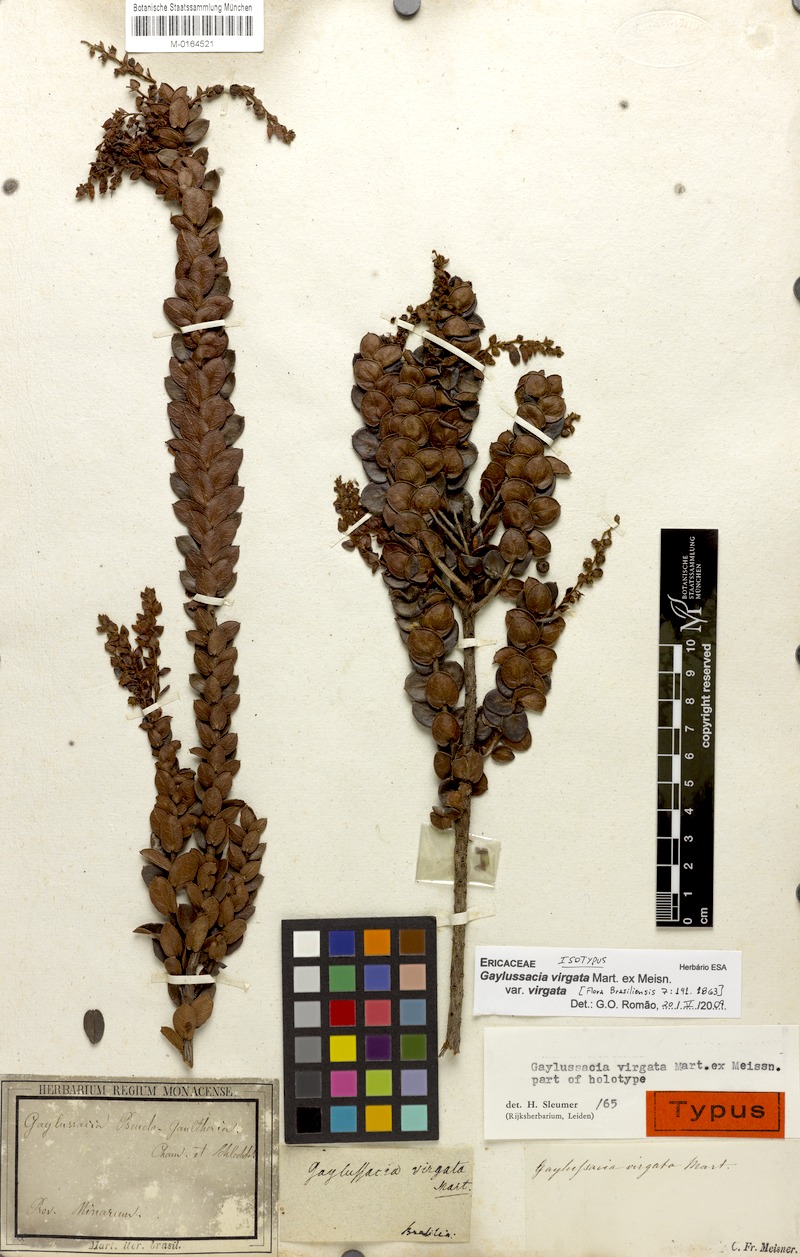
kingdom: Plantae
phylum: Tracheophyta
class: Magnoliopsida
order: Ericales
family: Ericaceae
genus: Gaylussacia
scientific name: Gaylussacia virgata
